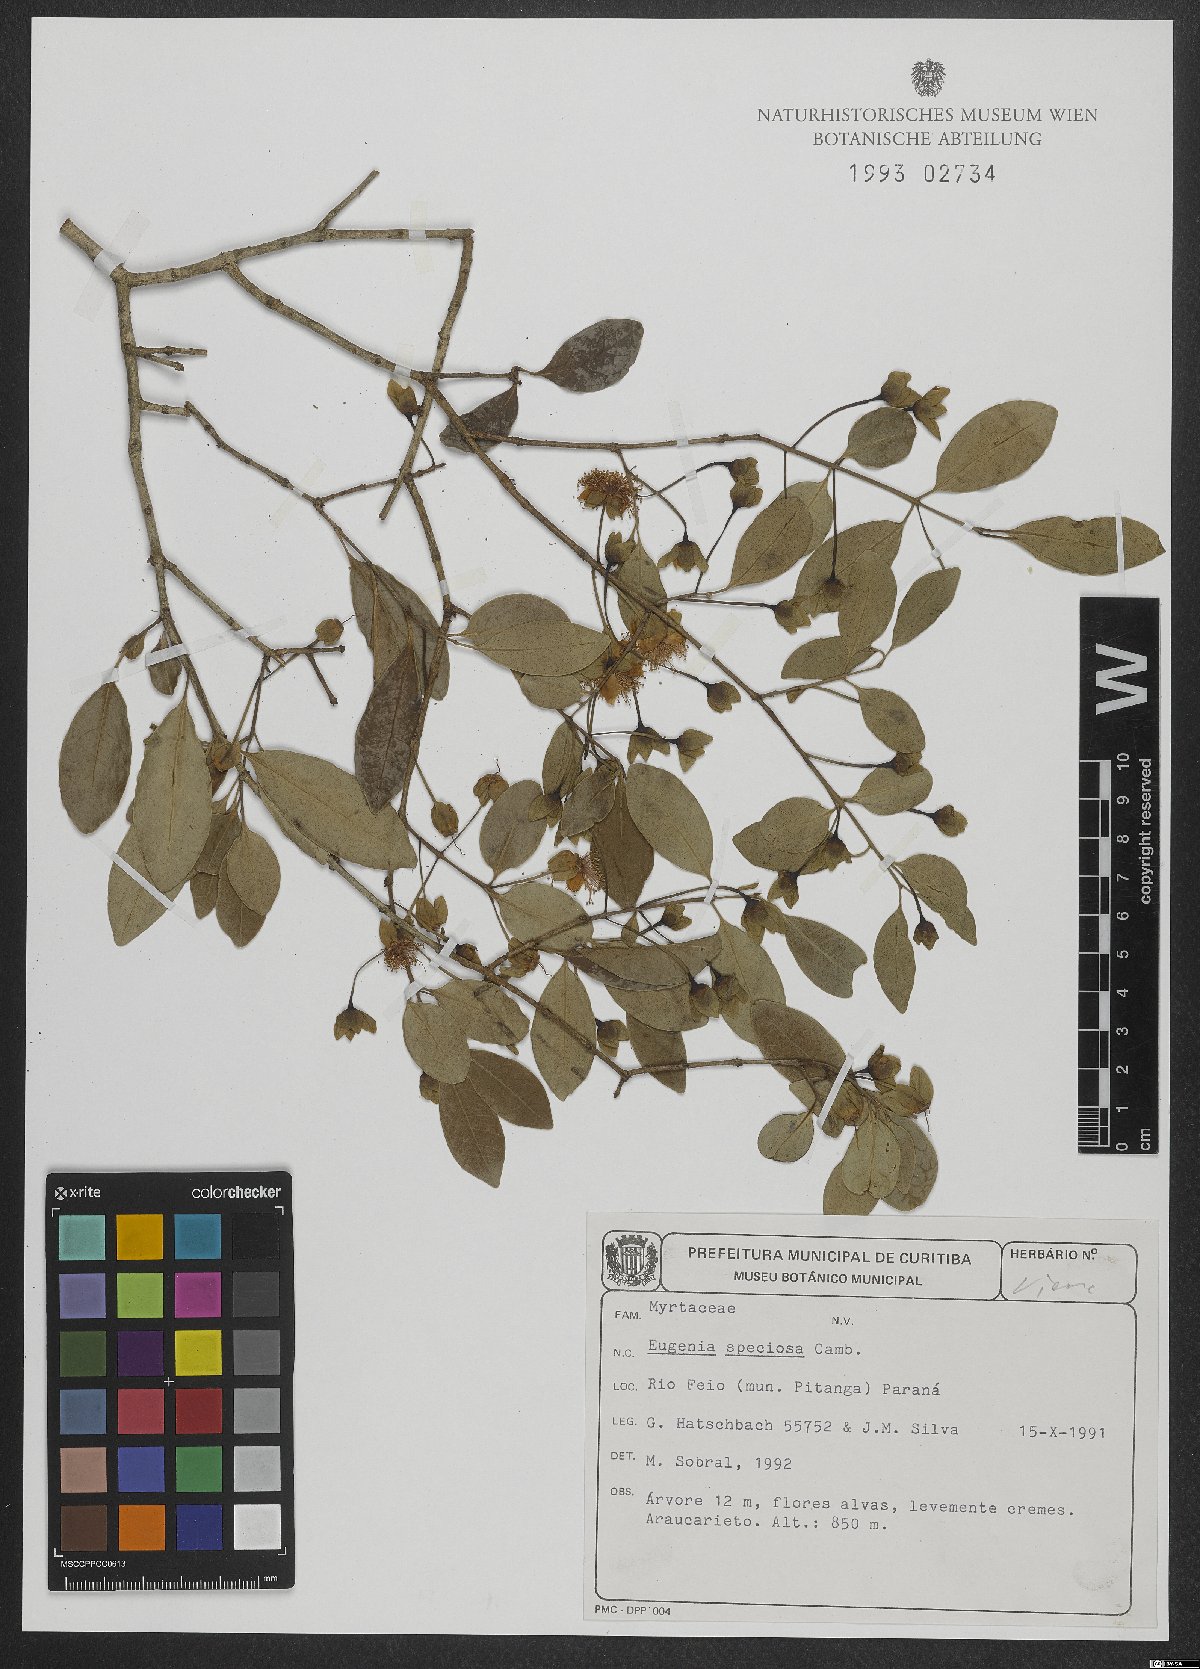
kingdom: Plantae
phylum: Tracheophyta
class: Magnoliopsida
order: Myrtales
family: Myrtaceae
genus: Eugenia
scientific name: Eugenia speciosa
